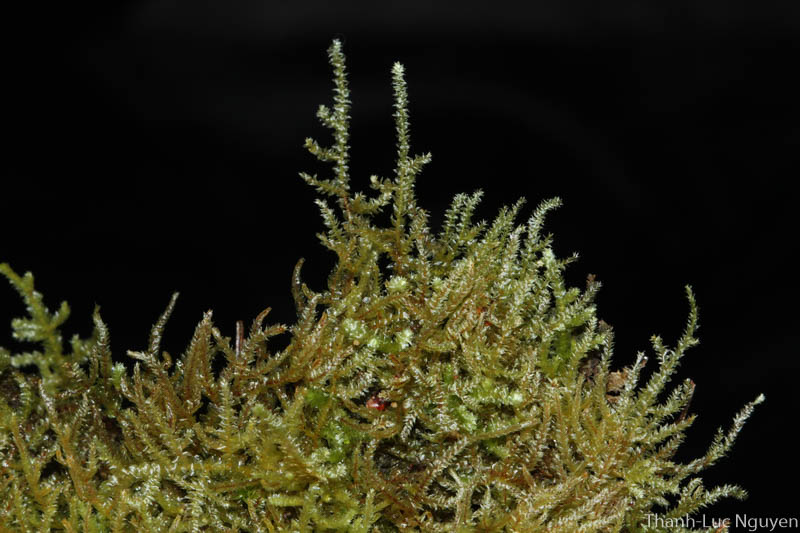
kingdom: Plantae
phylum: Bryophyta
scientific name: Bryophyta
